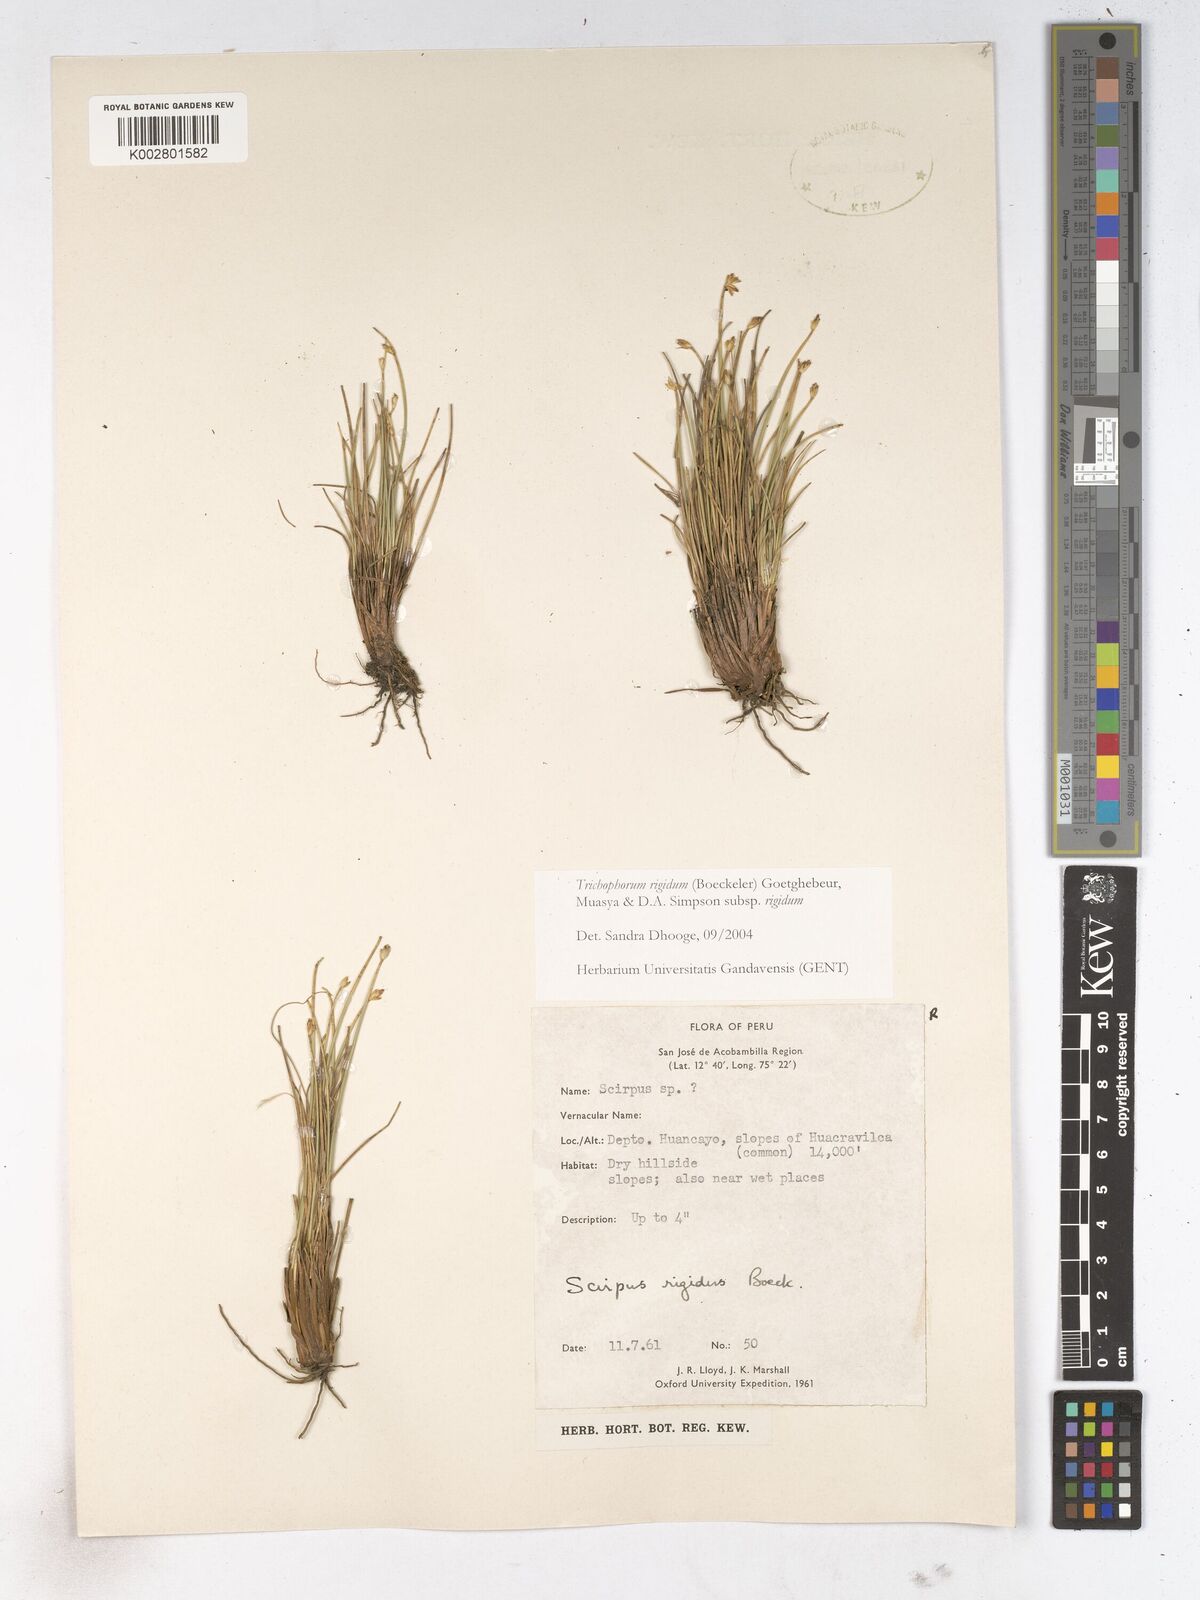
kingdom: Plantae
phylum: Tracheophyta
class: Liliopsida
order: Poales
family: Cyperaceae
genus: Trichophorum
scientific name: Trichophorum rigidum
